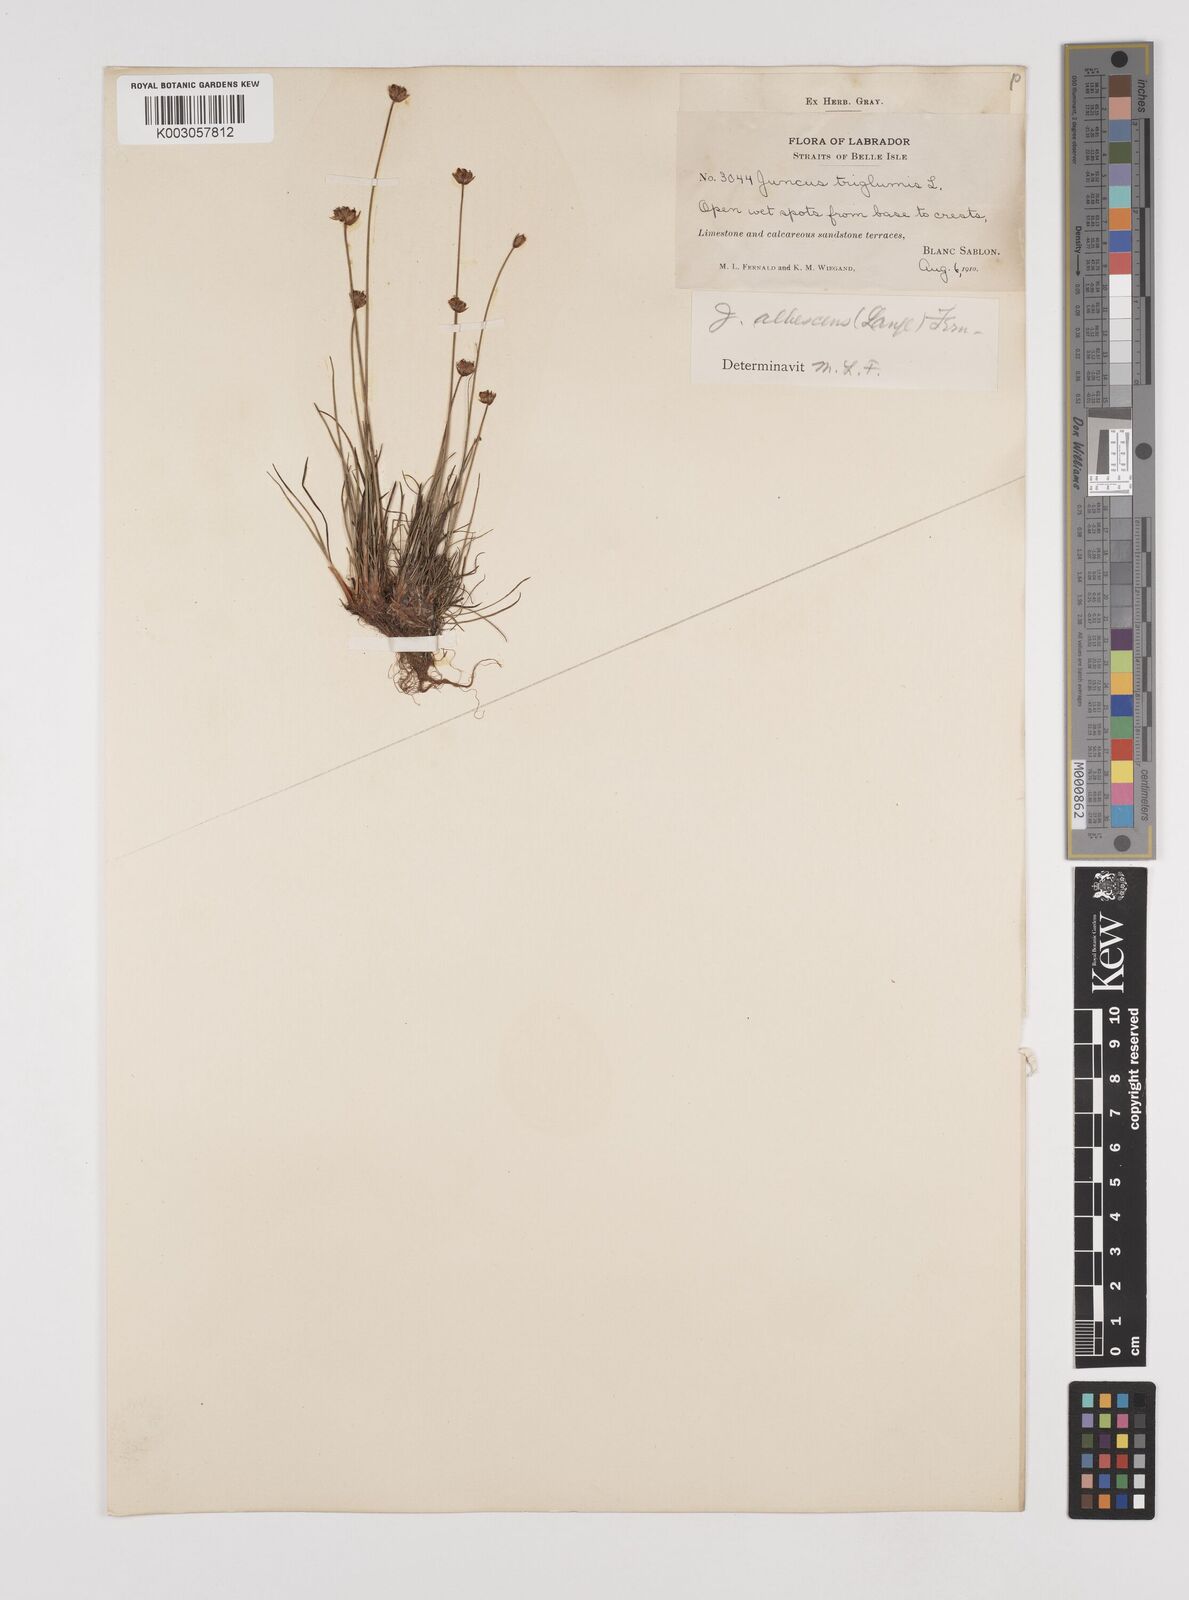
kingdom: Plantae
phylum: Tracheophyta
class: Liliopsida
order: Poales
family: Juncaceae
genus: Juncus
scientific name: Juncus triglumis
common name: Three-flowered rush
